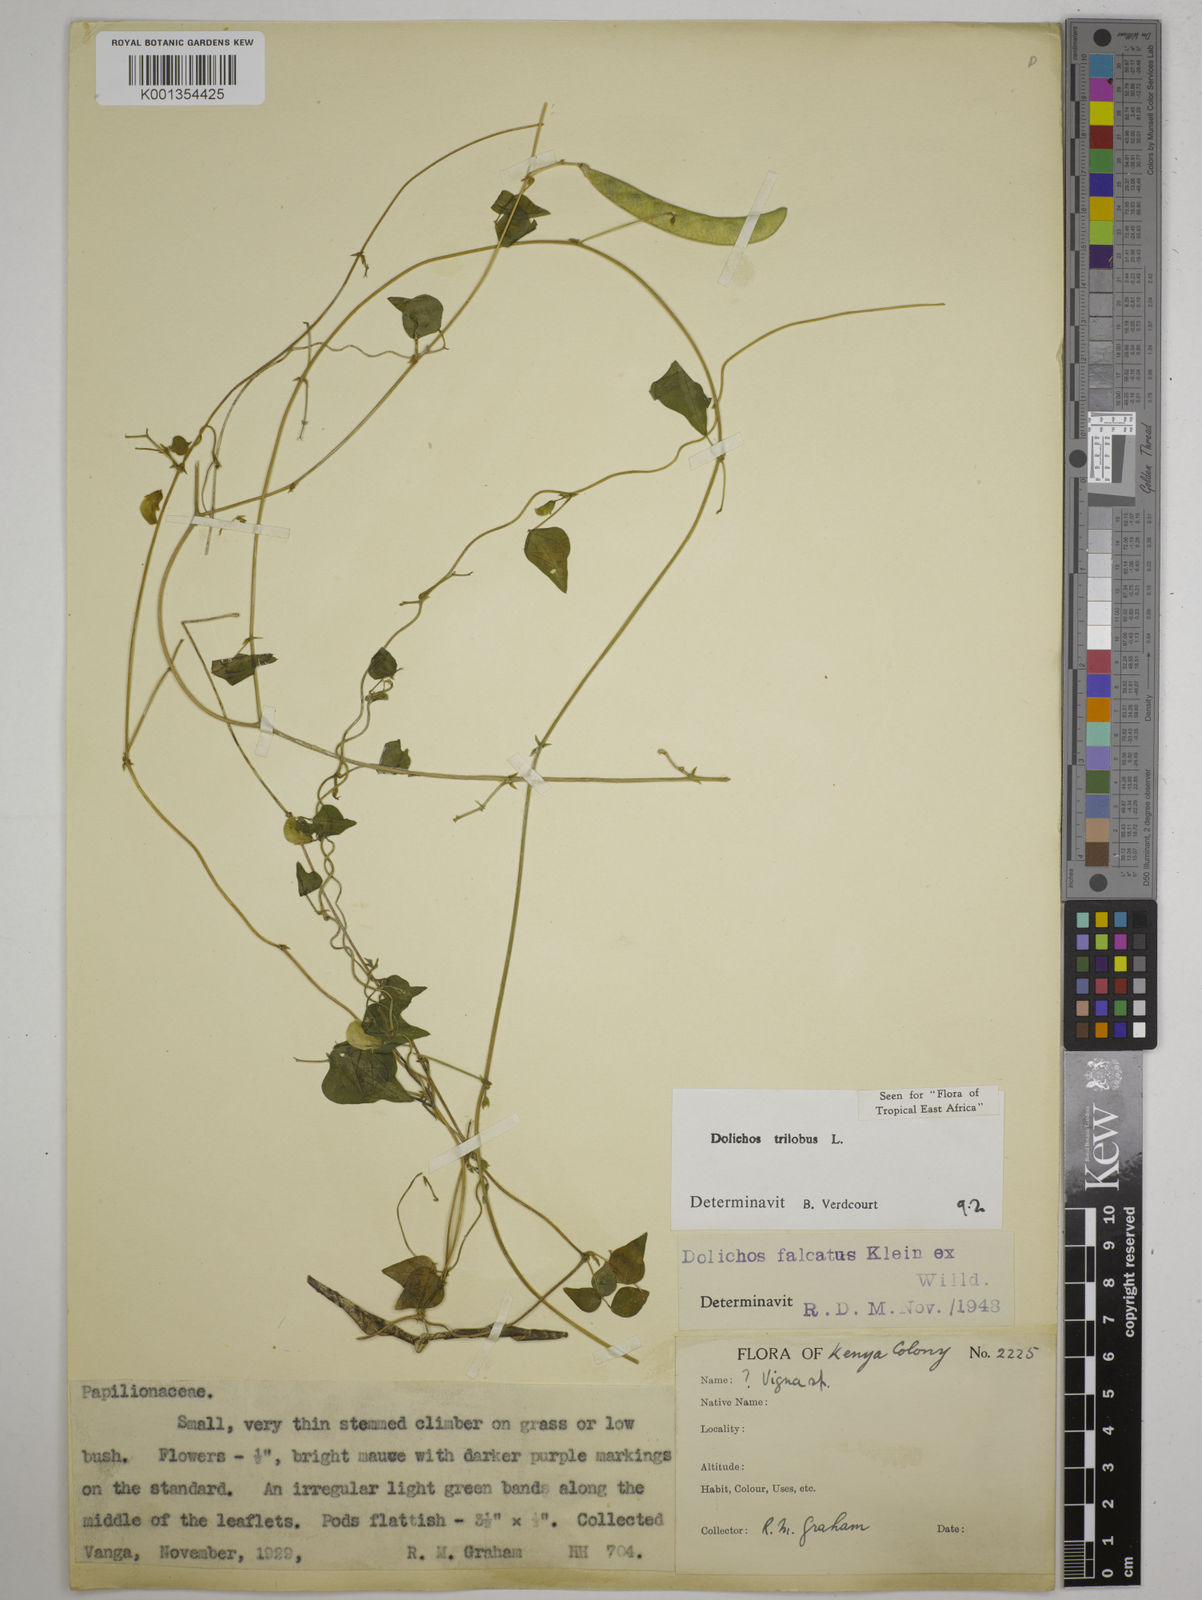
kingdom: Plantae
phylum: Tracheophyta
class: Magnoliopsida
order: Fabales
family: Fabaceae
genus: Dolichos
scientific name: Dolichos
